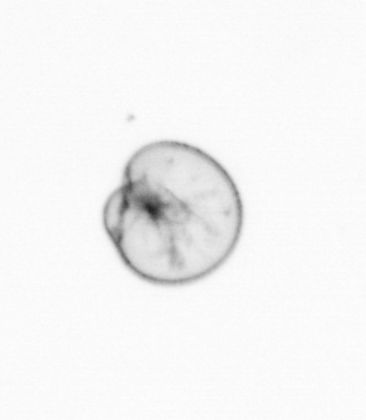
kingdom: Chromista
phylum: Myzozoa
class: Dinophyceae
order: Noctilucales
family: Noctilucaceae
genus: Noctiluca
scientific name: Noctiluca scintillans
